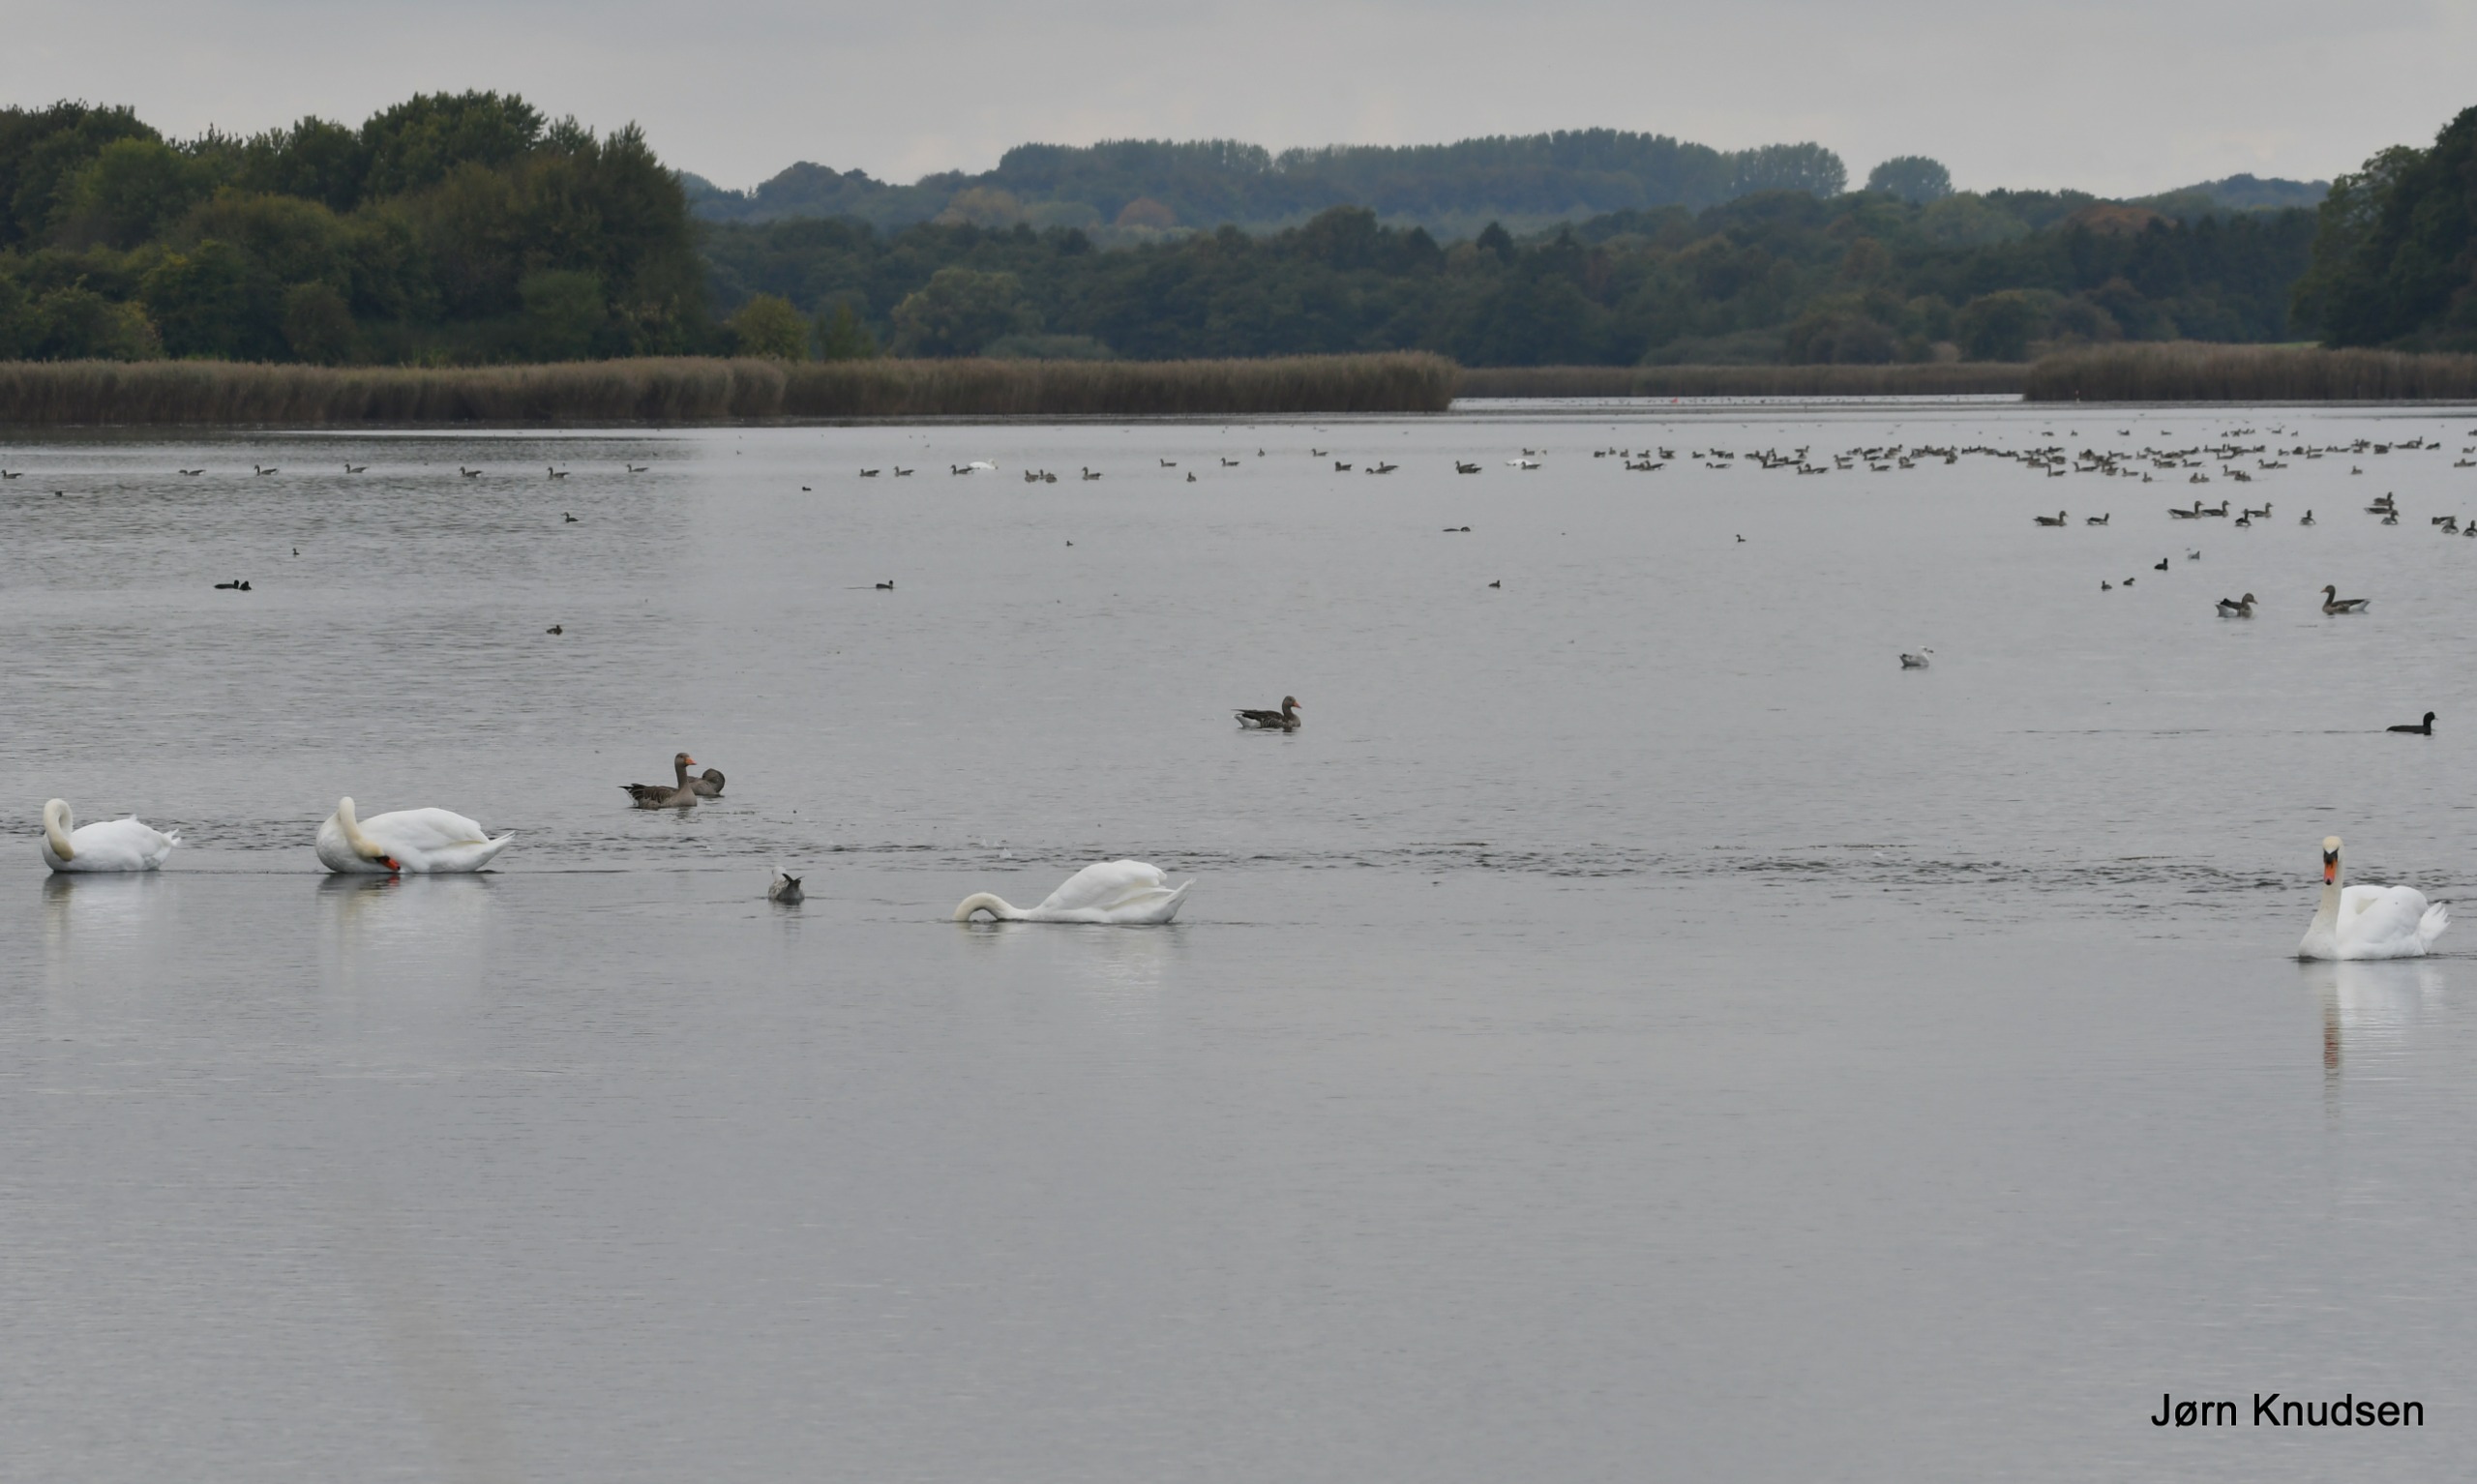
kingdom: Animalia
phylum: Chordata
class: Aves
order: Anseriformes
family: Anatidae
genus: Cygnus
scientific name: Cygnus olor
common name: Knopsvane
